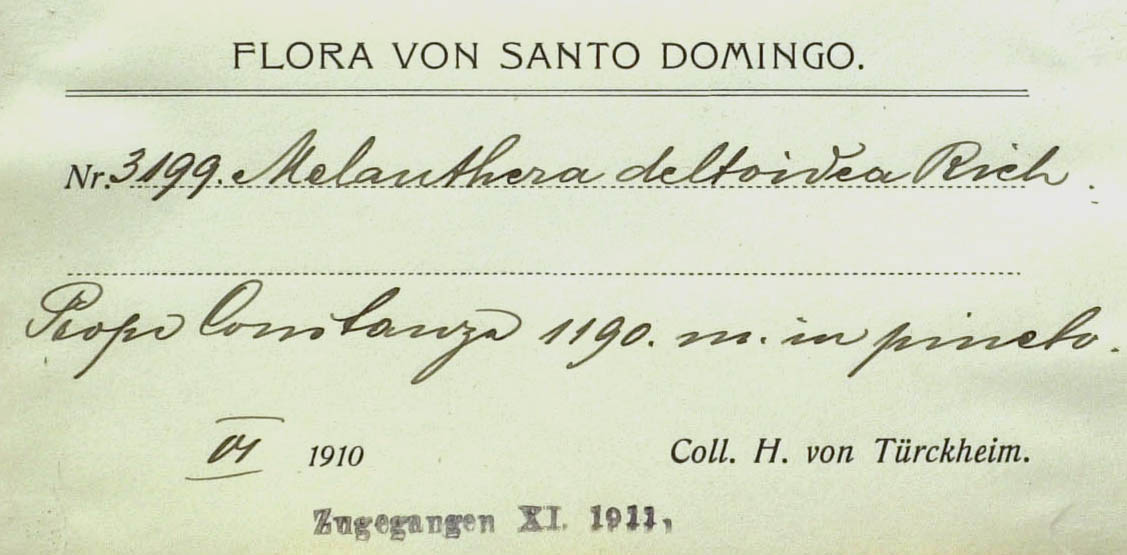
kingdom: Plantae
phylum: Tracheophyta
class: Magnoliopsida
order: Asterales
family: Asteraceae
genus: Melanthera
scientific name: Melanthera nivea
